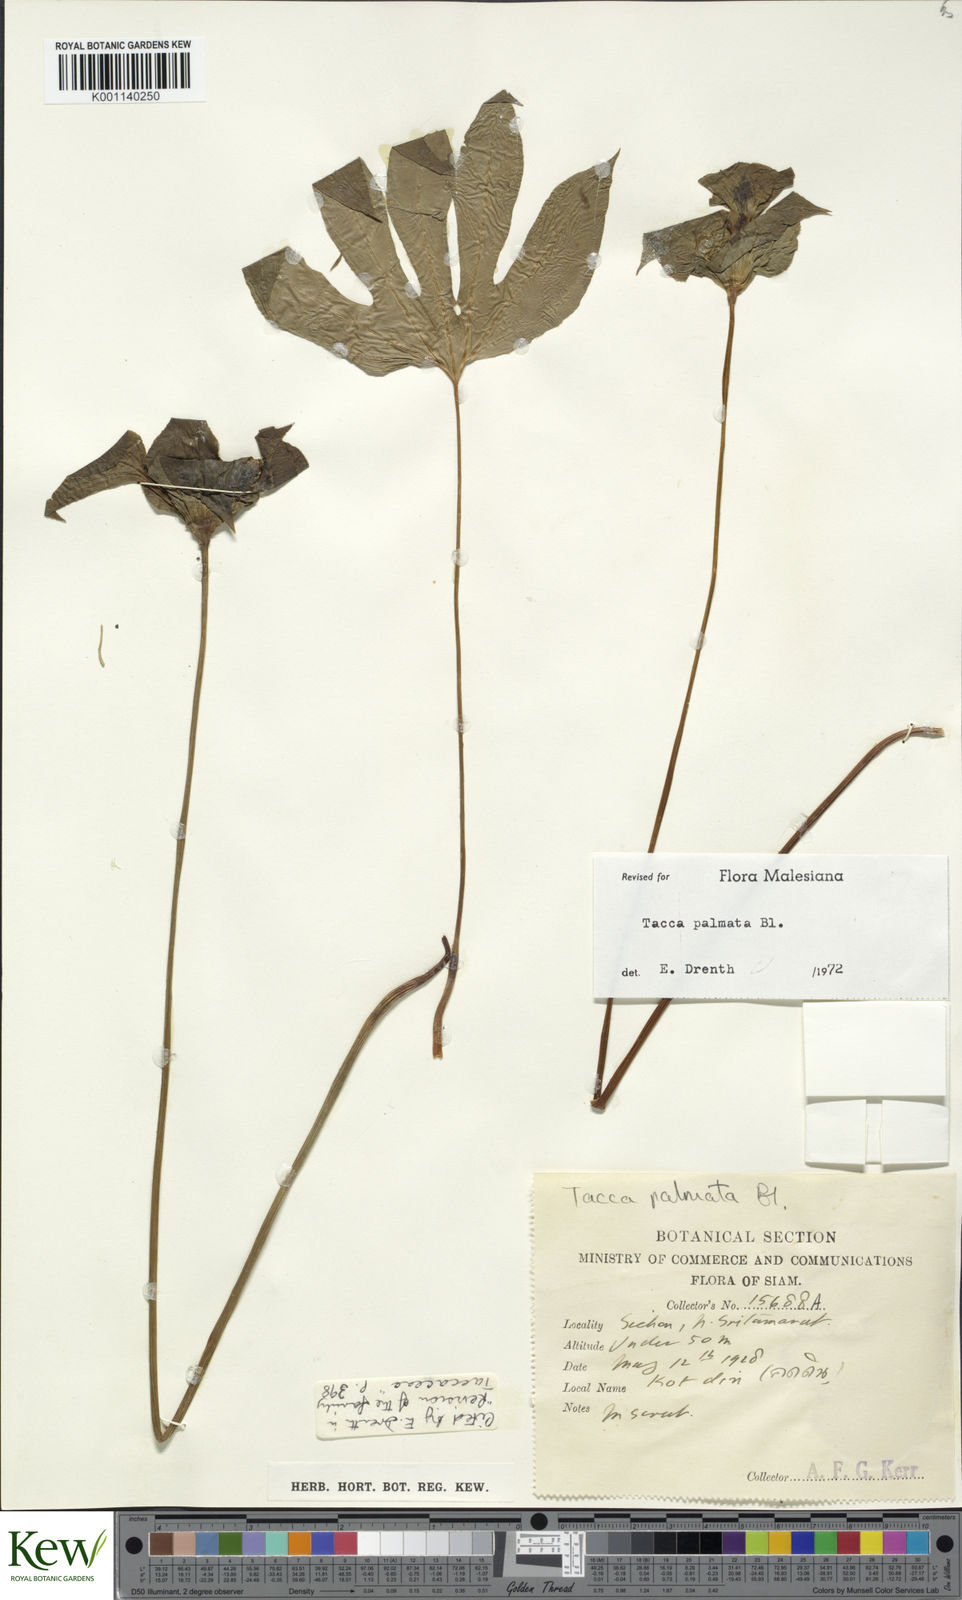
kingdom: Plantae
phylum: Tracheophyta
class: Liliopsida
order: Dioscoreales
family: Dioscoreaceae
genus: Tacca
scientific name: Tacca palmata
